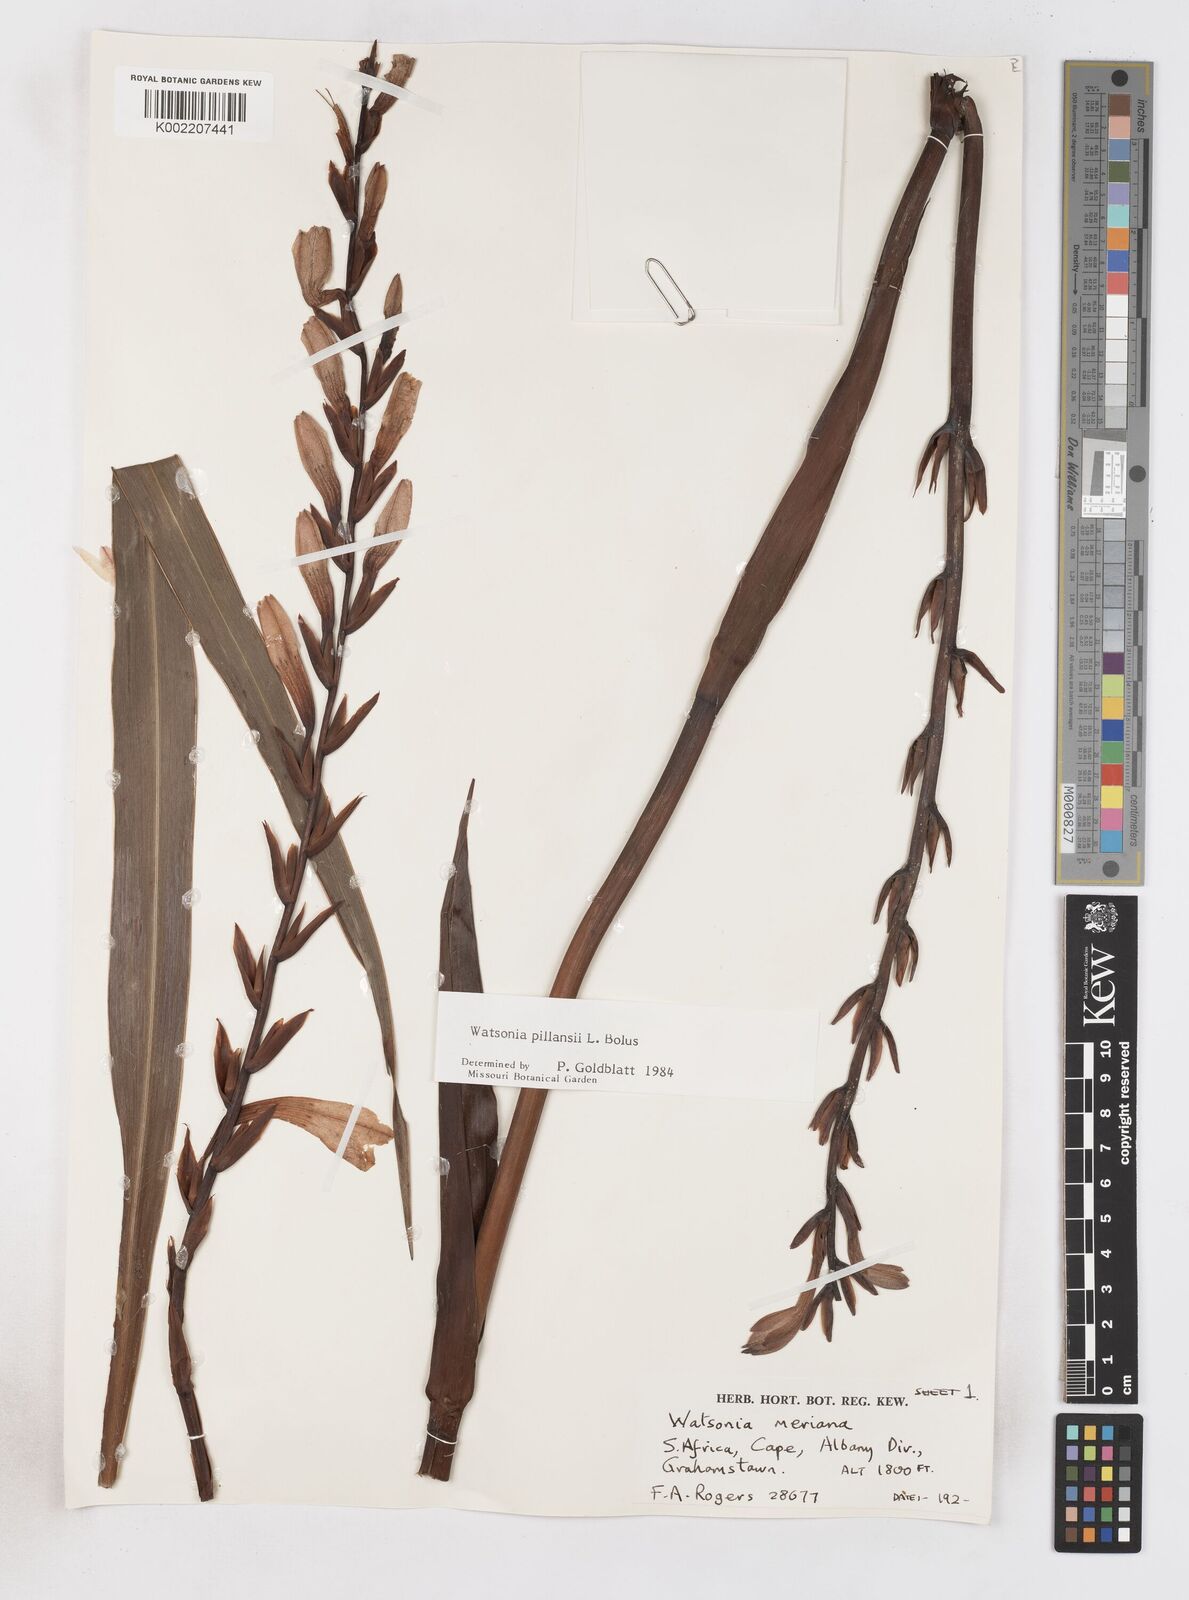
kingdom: Plantae
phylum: Tracheophyta
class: Liliopsida
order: Asparagales
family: Iridaceae
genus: Watsonia
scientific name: Watsonia pillansii
